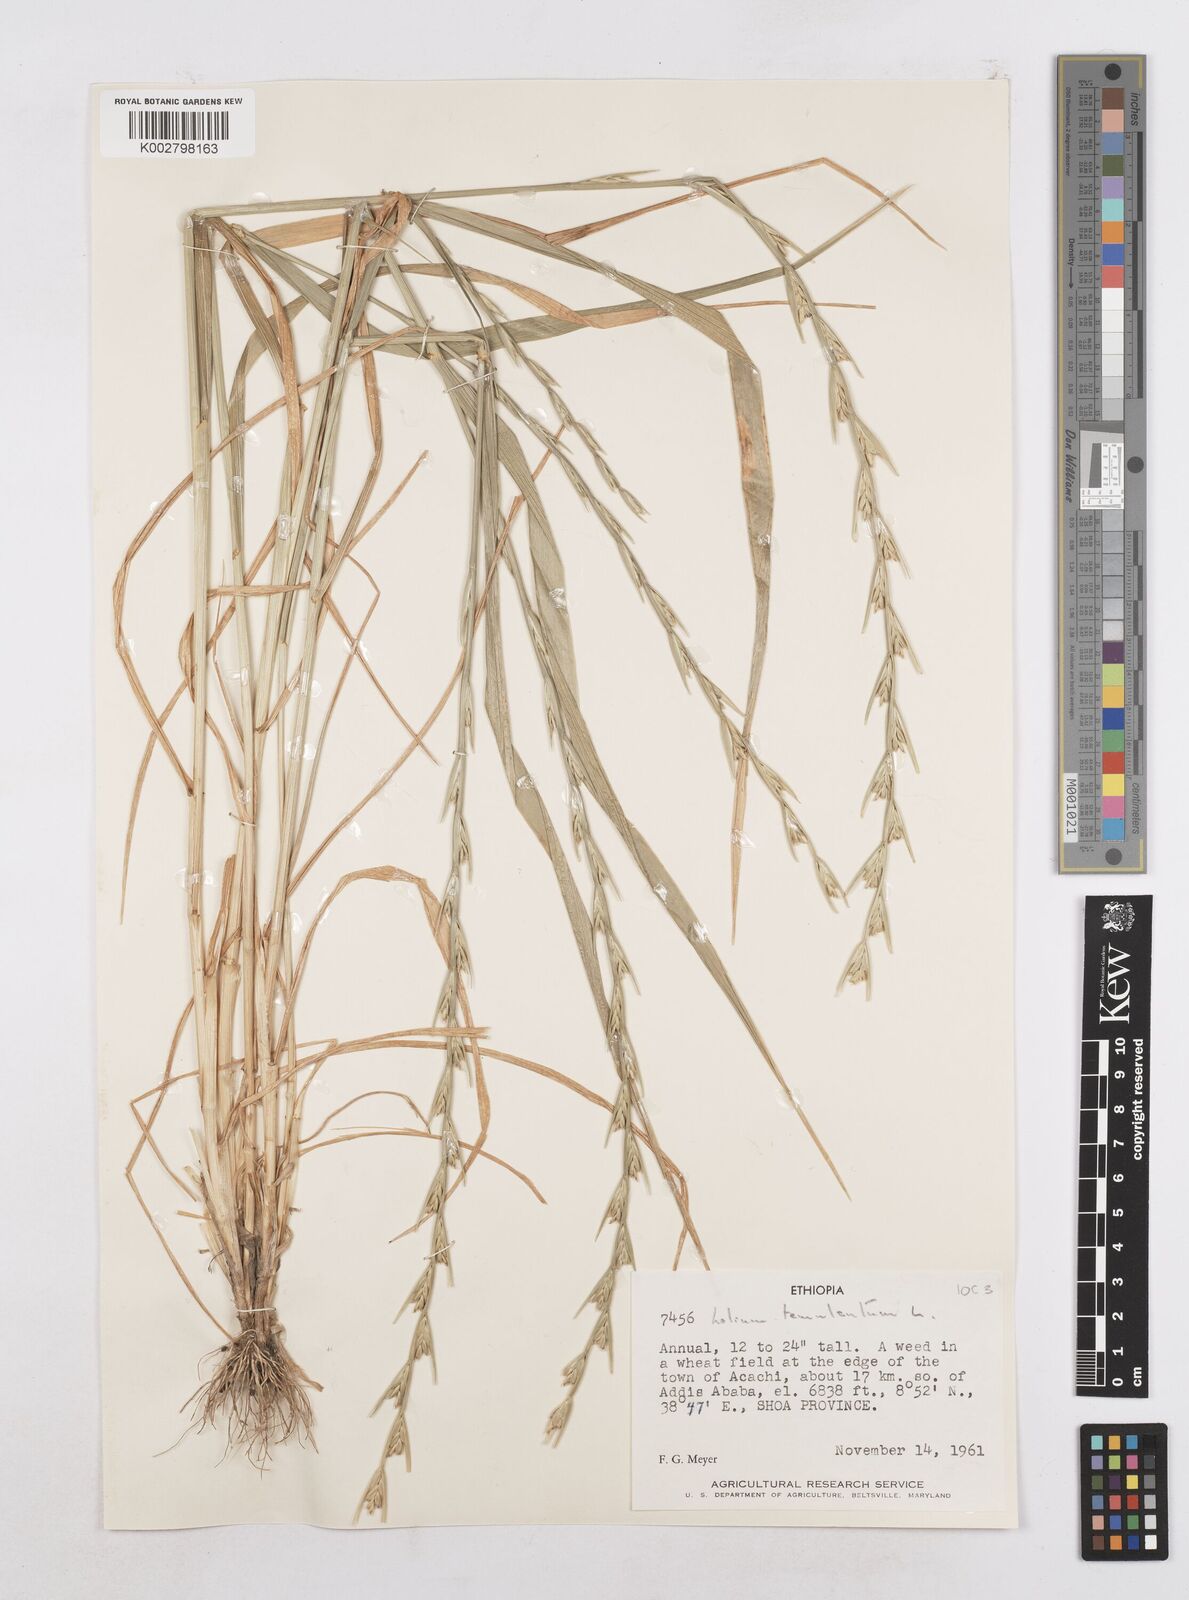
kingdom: Plantae
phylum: Tracheophyta
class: Liliopsida
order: Poales
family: Poaceae
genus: Lolium
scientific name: Lolium temulentum
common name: Darnel
